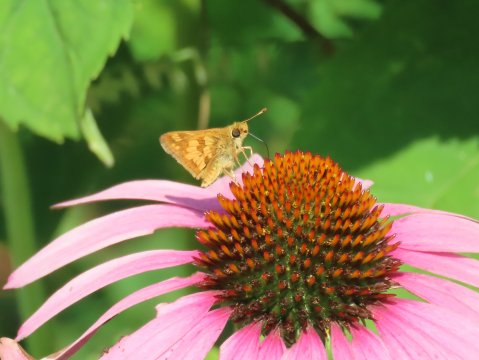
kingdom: Animalia
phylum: Arthropoda
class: Insecta
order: Lepidoptera
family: Hesperiidae
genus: Polites
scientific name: Polites coras
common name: Peck's Skipper
